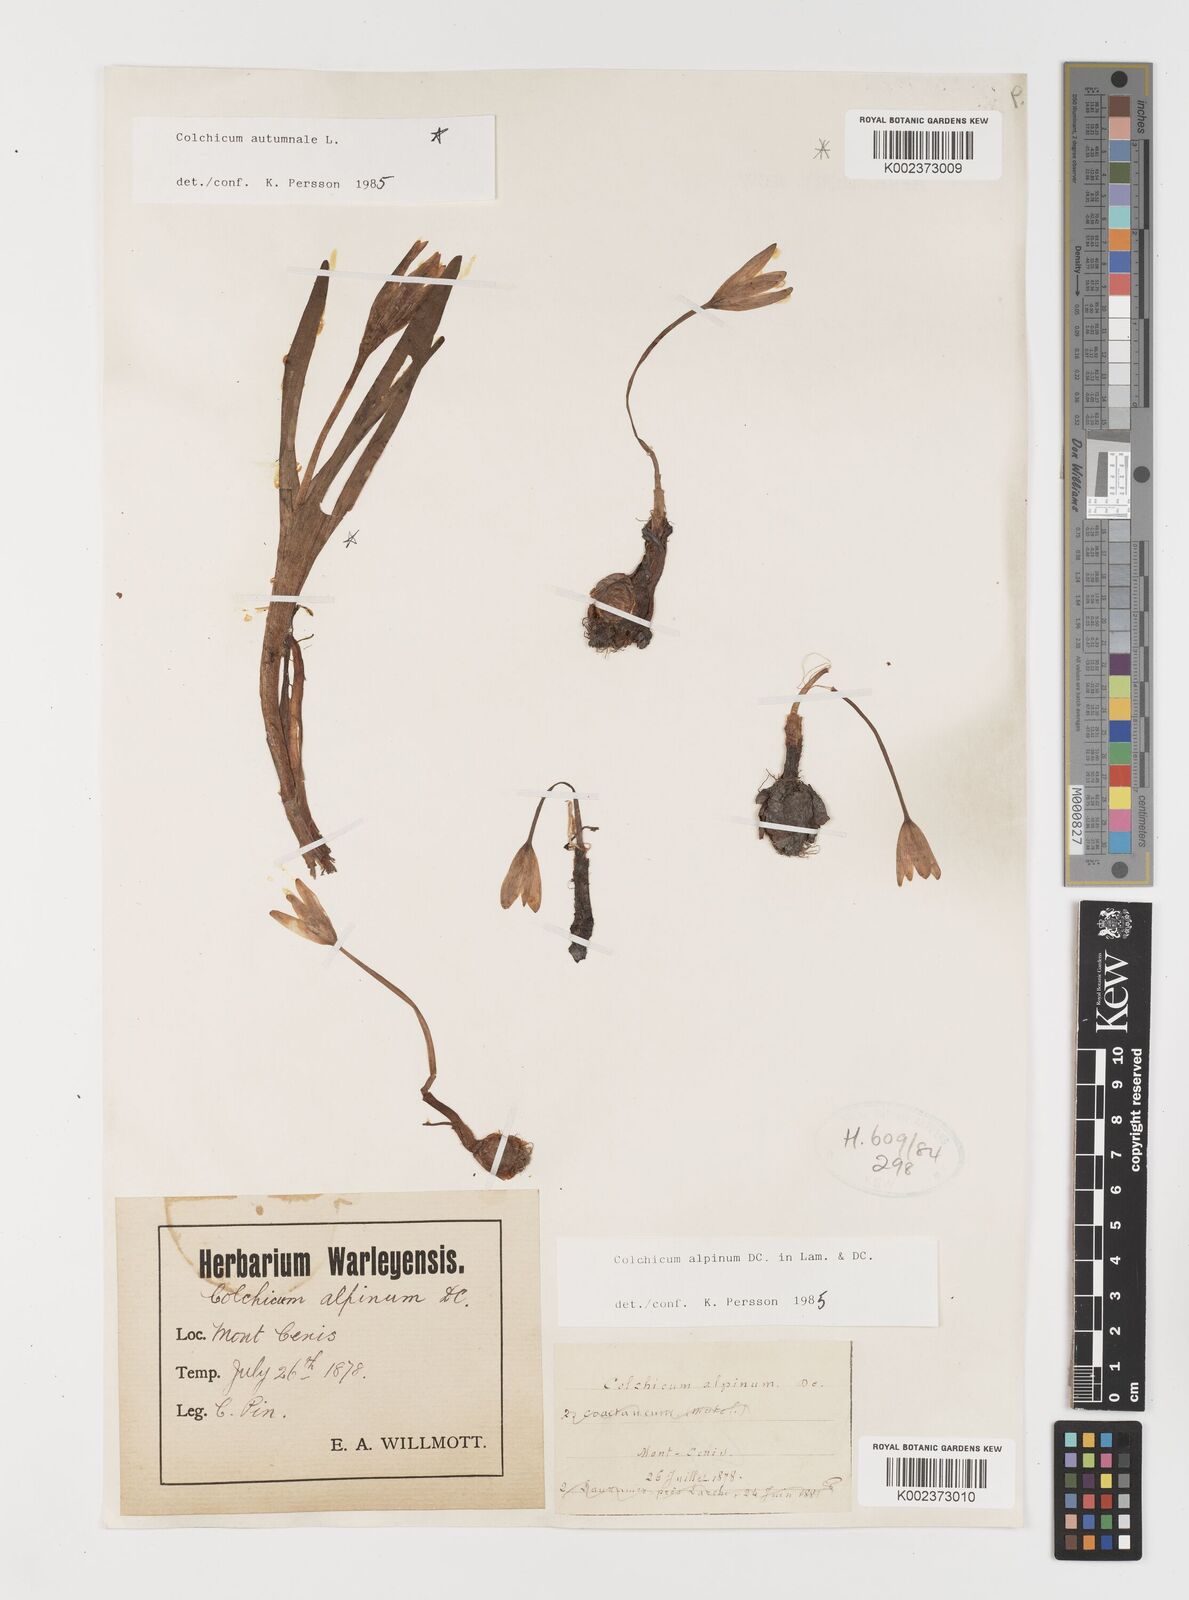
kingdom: Plantae
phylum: Tracheophyta
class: Liliopsida
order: Liliales
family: Colchicaceae
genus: Colchicum
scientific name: Colchicum alpinum
